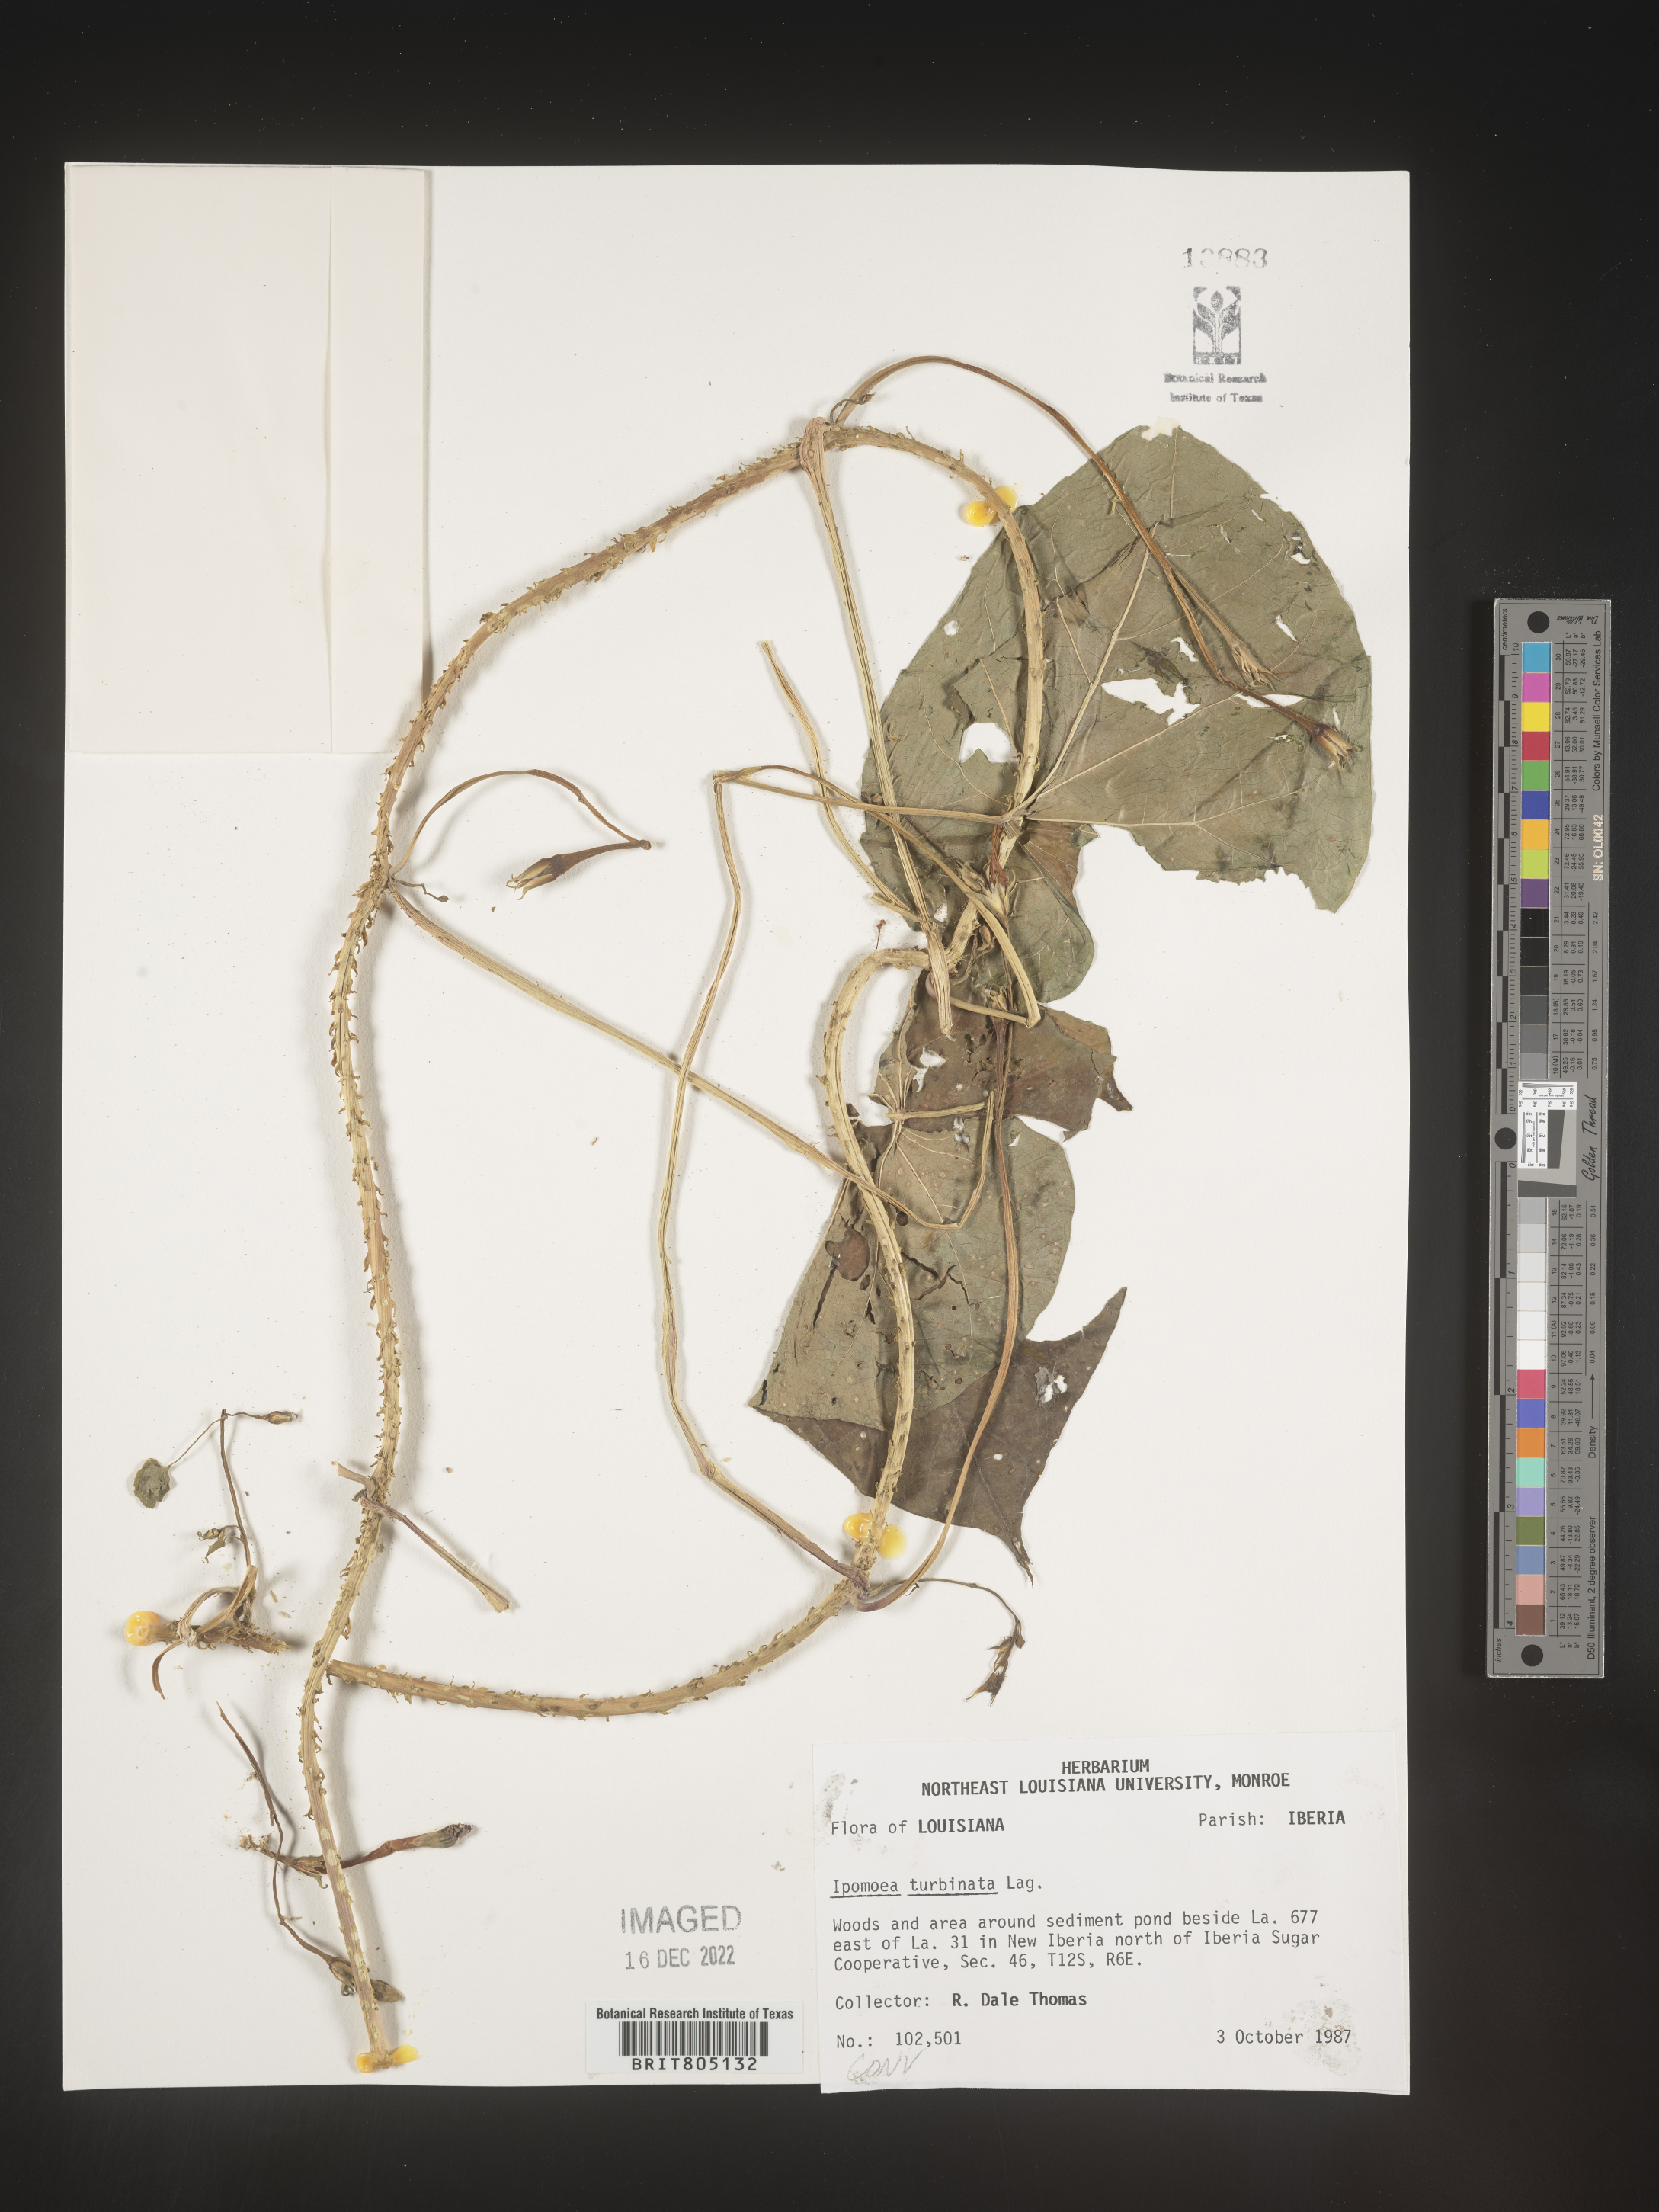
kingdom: Plantae
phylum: Tracheophyta
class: Magnoliopsida
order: Solanales
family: Convolvulaceae
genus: Ipomoea
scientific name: Ipomoea muricata
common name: Lilac-bell
